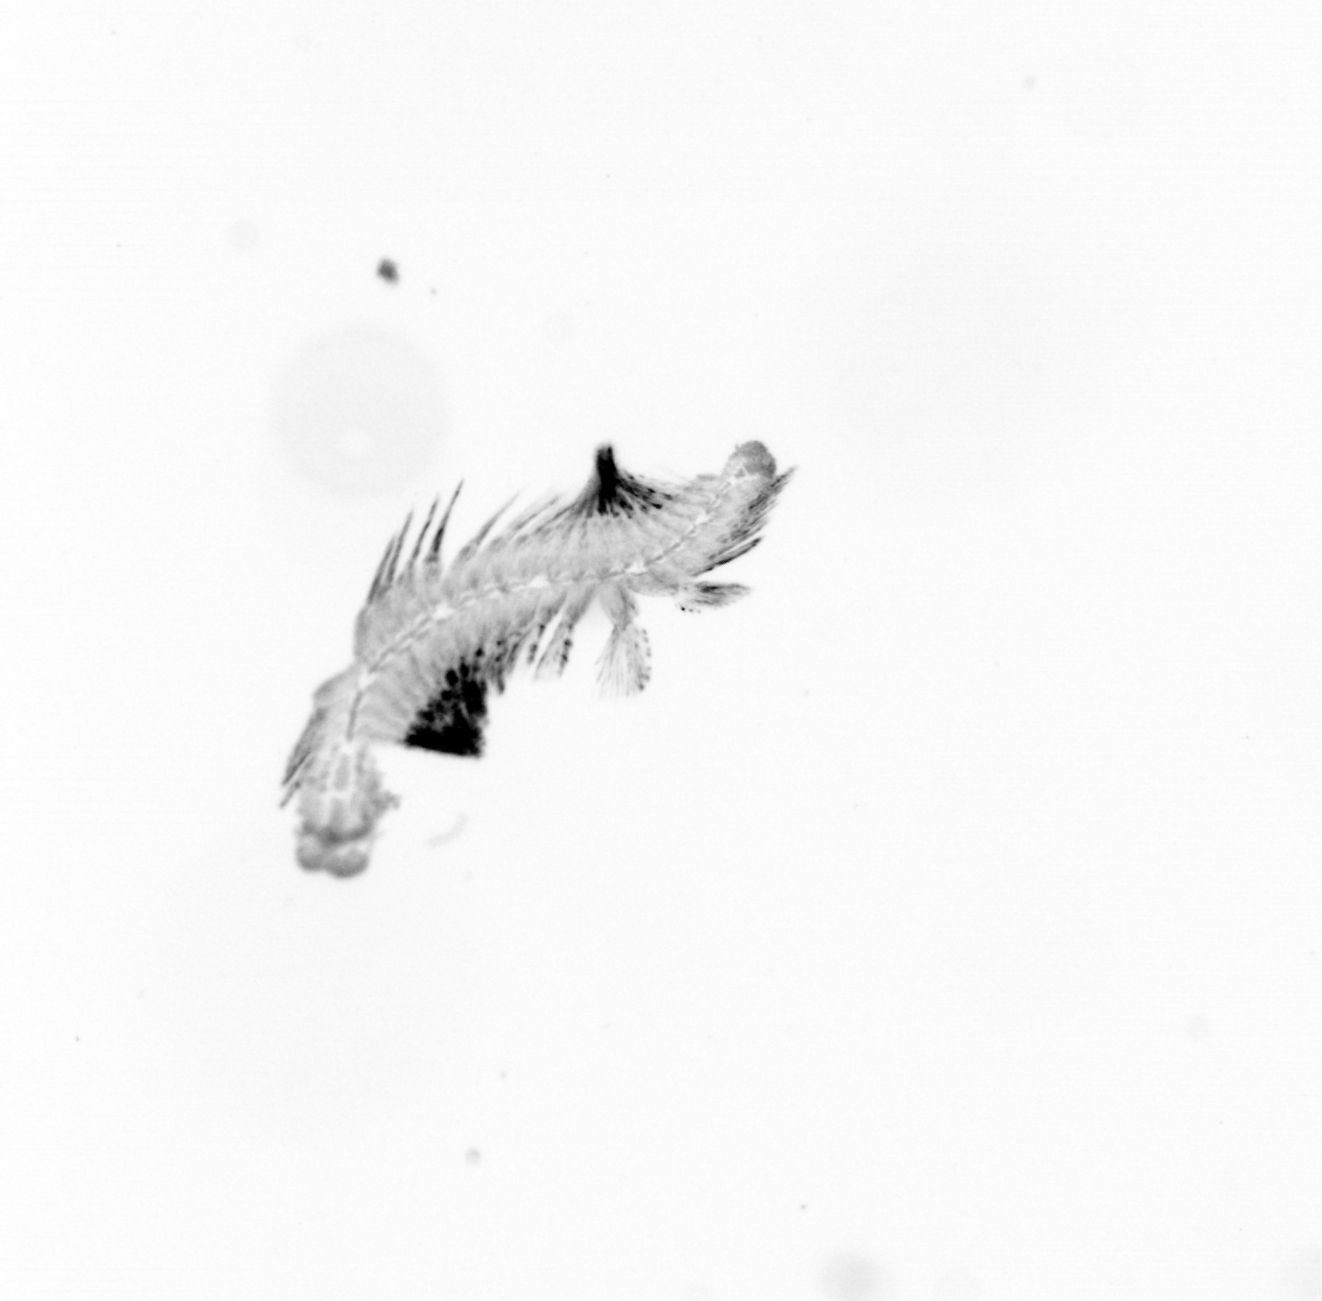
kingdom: Animalia
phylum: Annelida
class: Polychaeta
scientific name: Polychaeta
